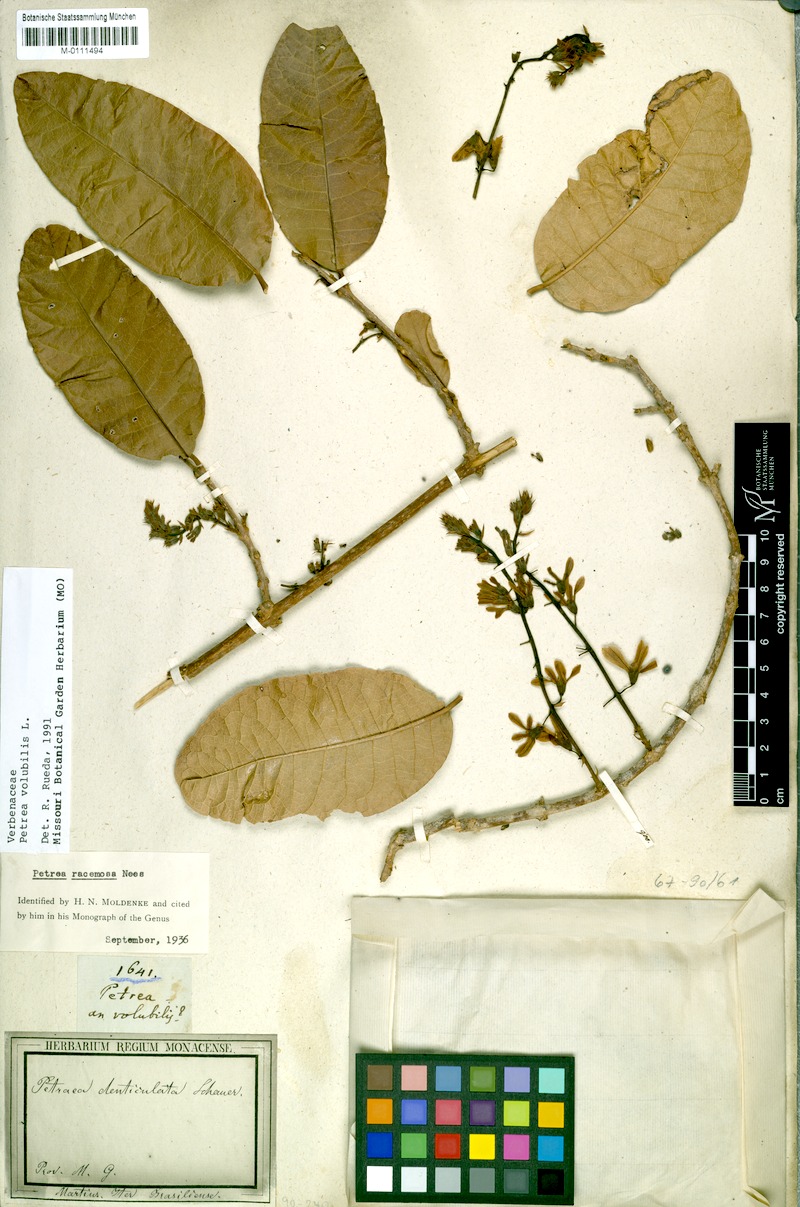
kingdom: Plantae
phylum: Tracheophyta
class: Magnoliopsida
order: Lamiales
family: Verbenaceae
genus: Petrea
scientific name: Petrea volubilis
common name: Queen's-wreath
